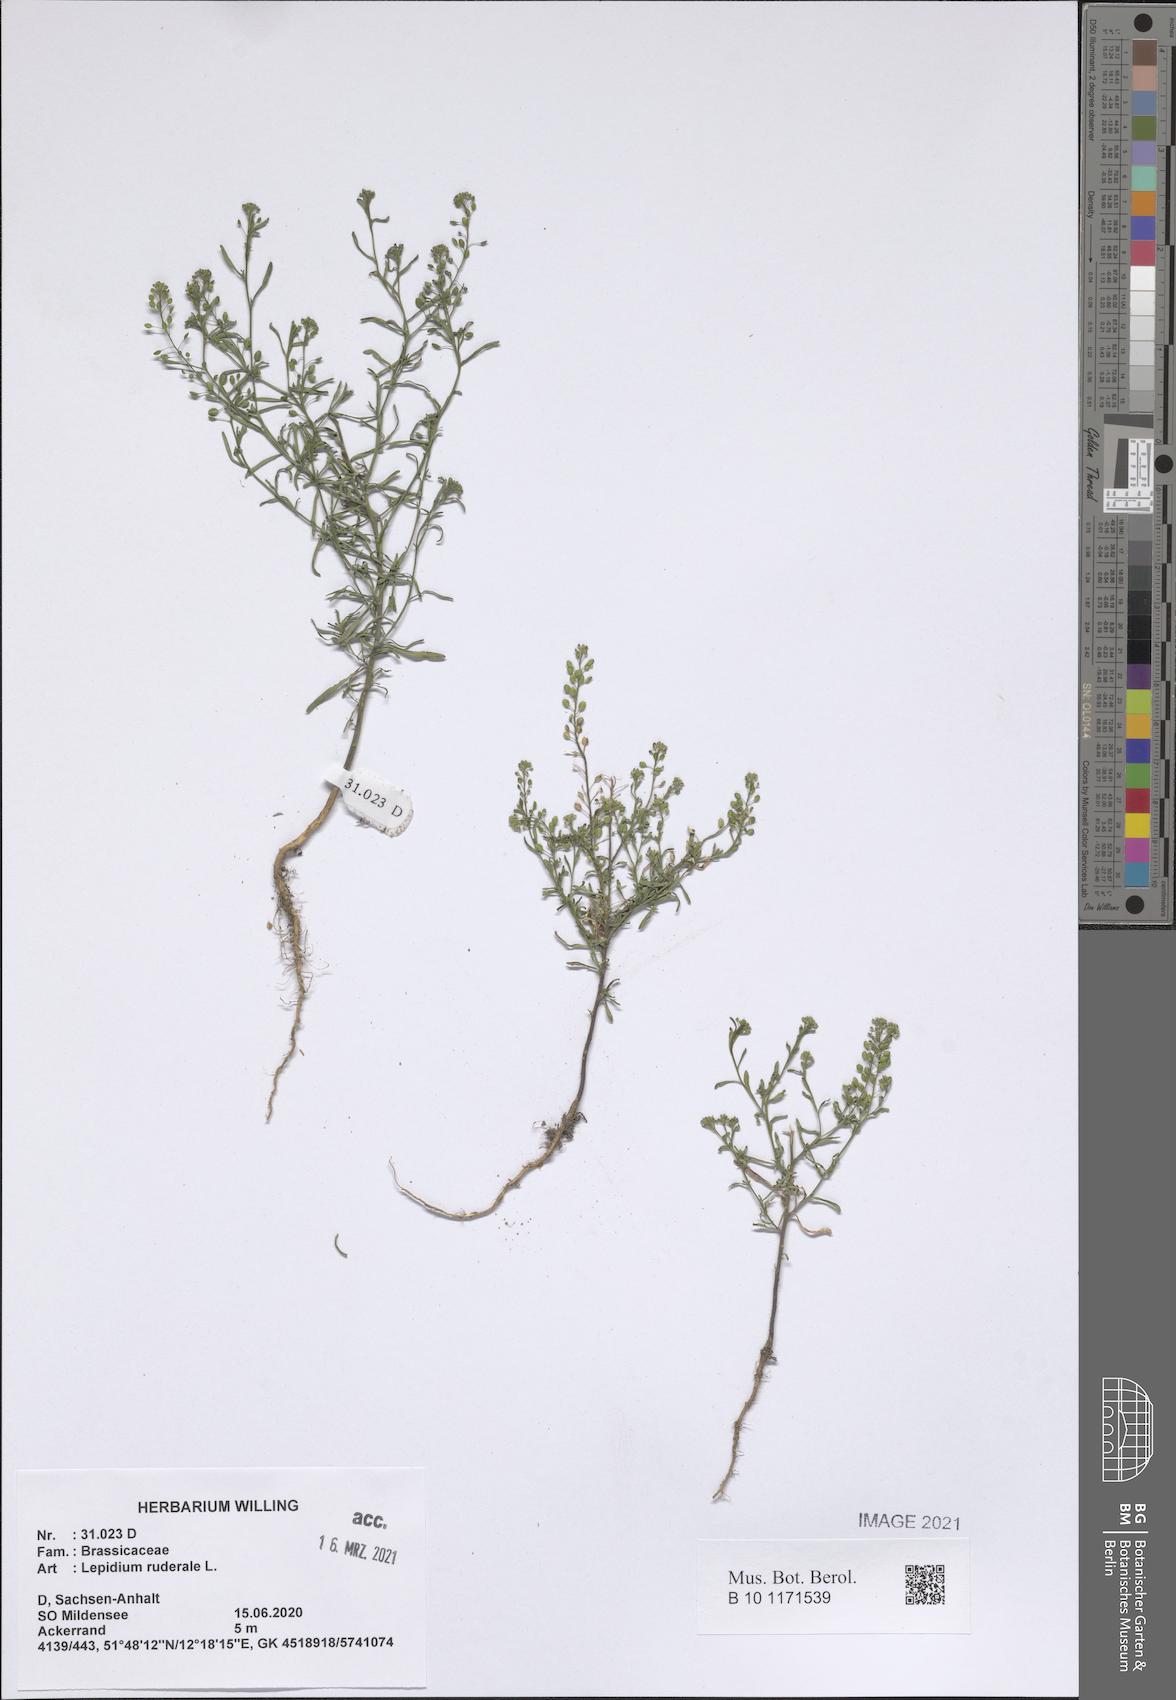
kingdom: Plantae
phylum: Tracheophyta
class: Magnoliopsida
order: Brassicales
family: Brassicaceae
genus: Lepidium
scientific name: Lepidium ruderale
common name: Narrow-leaved pepperwort
